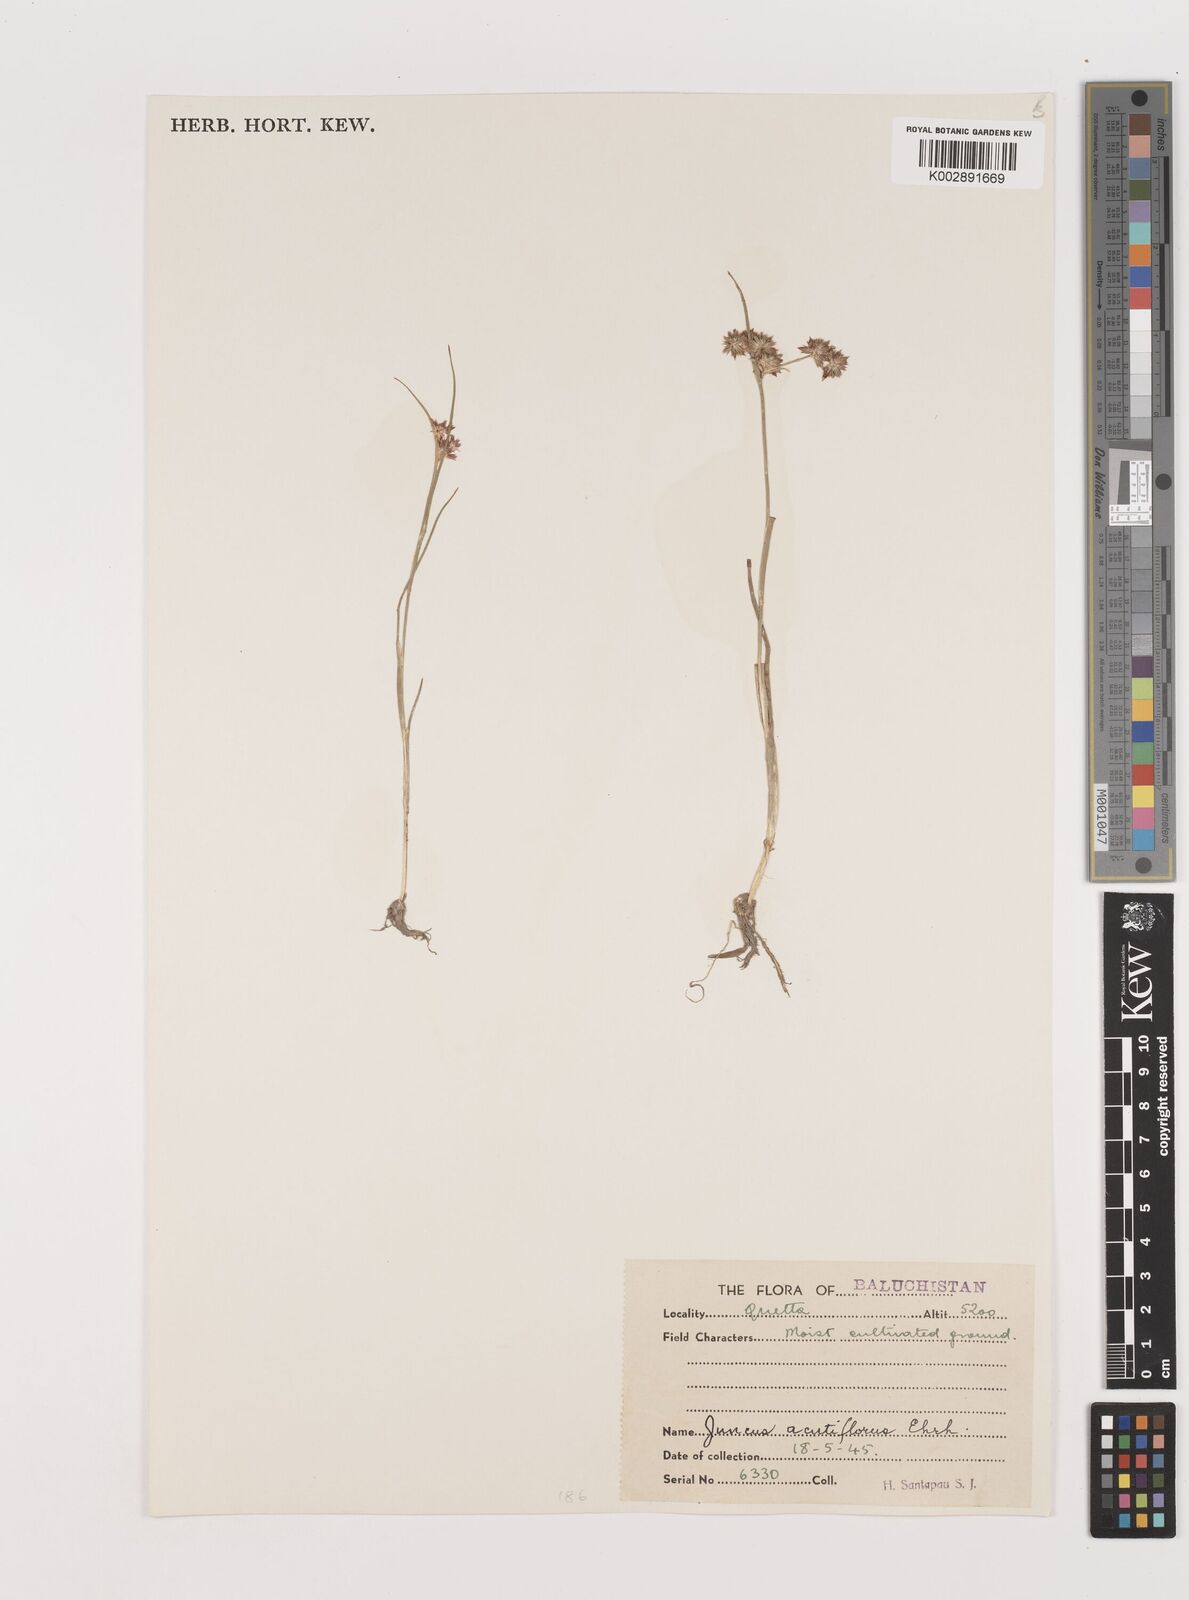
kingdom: Plantae
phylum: Tracheophyta
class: Liliopsida
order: Poales
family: Juncaceae
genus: Juncus
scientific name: Juncus acutiflorus
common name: Sharp-flowered rush
